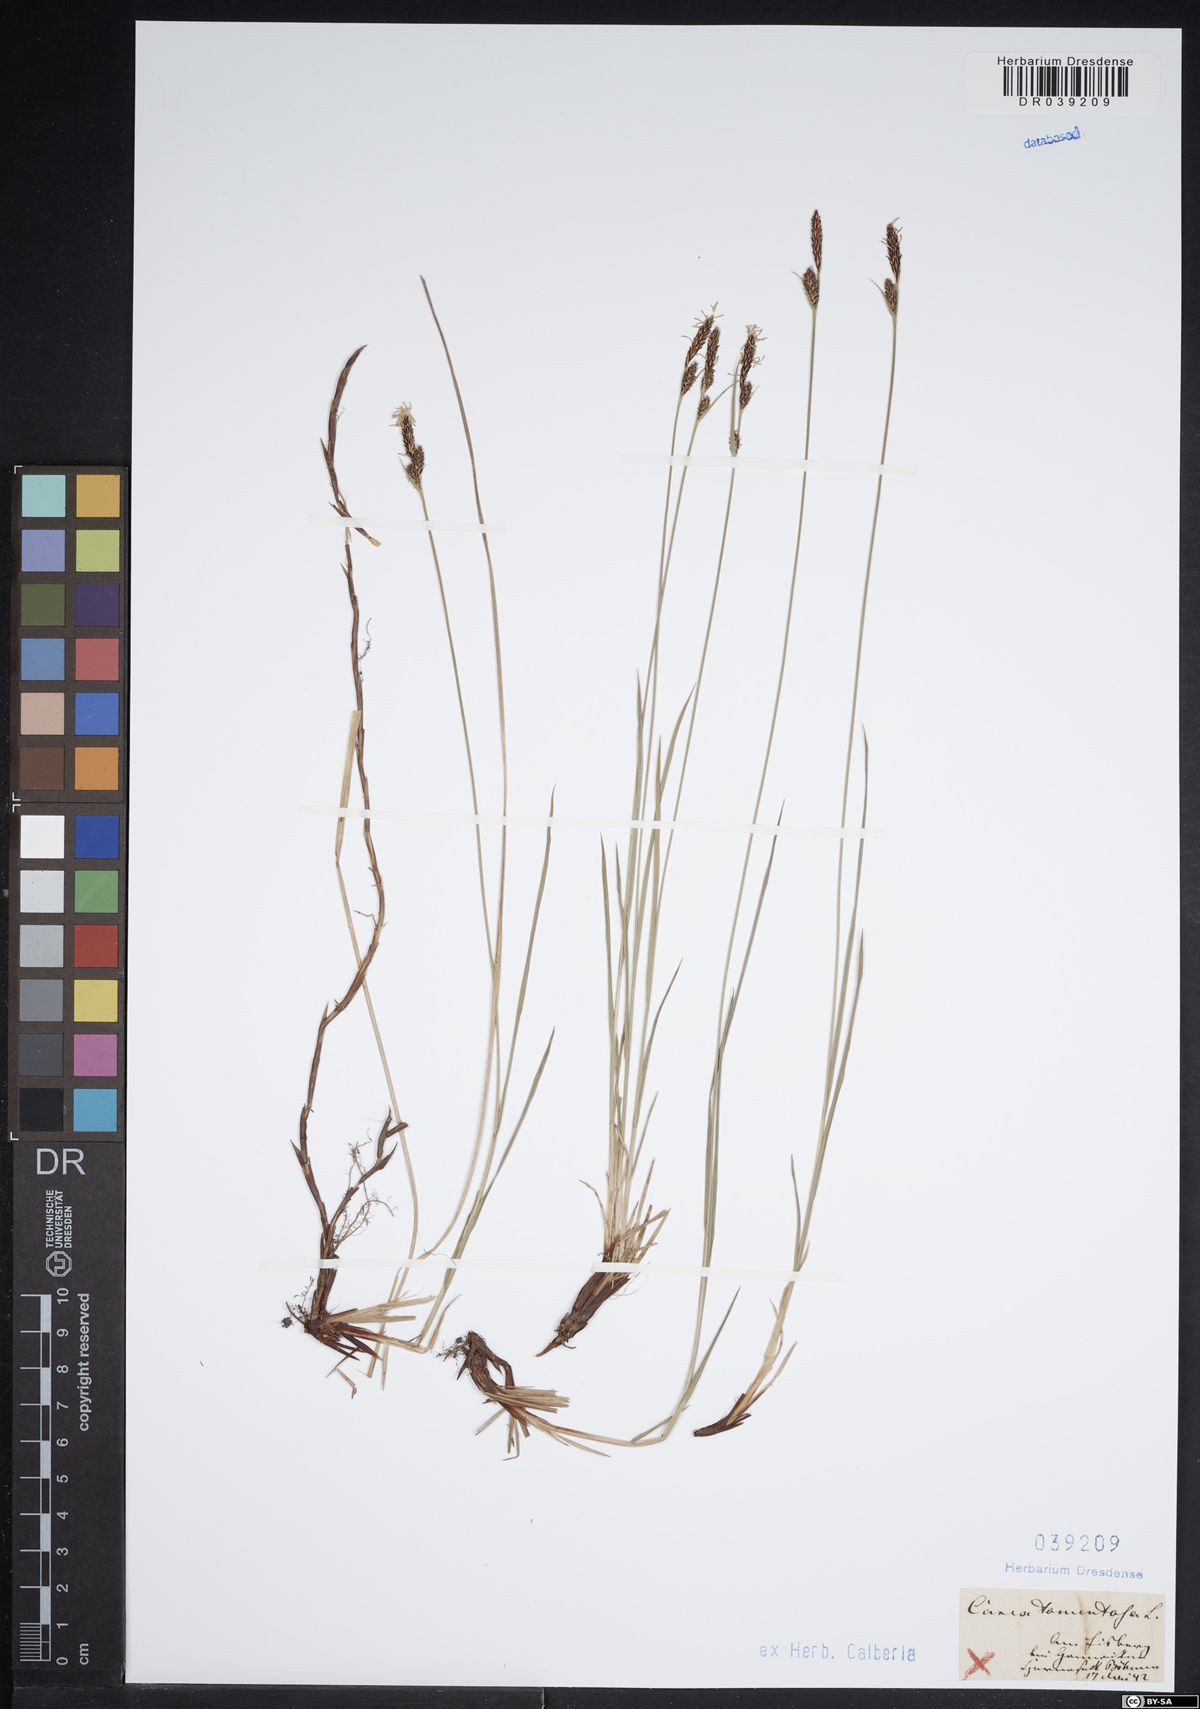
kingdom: Plantae
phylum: Tracheophyta
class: Liliopsida
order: Poales
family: Cyperaceae
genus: Carex
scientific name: Carex tomentosa
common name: Downy-fruited sedge
